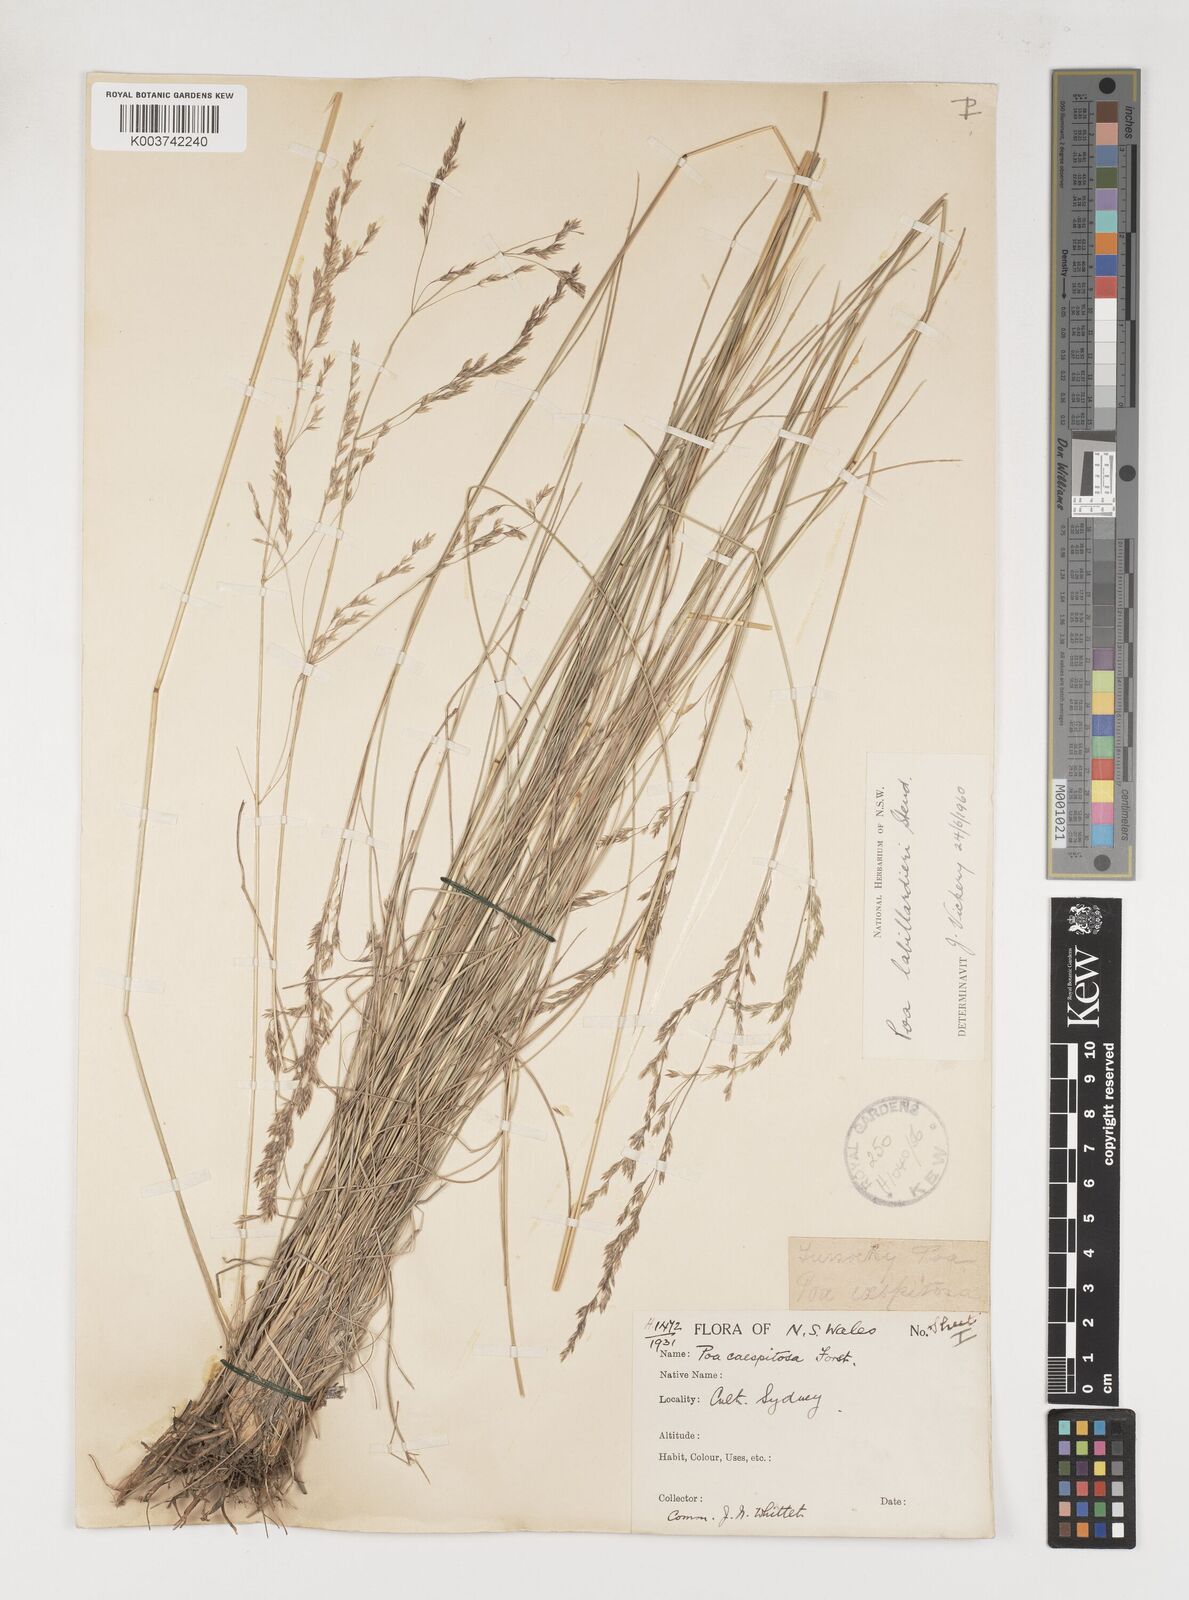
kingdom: Plantae
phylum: Tracheophyta
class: Liliopsida
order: Poales
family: Poaceae
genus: Poa
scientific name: Poa labillardierei
